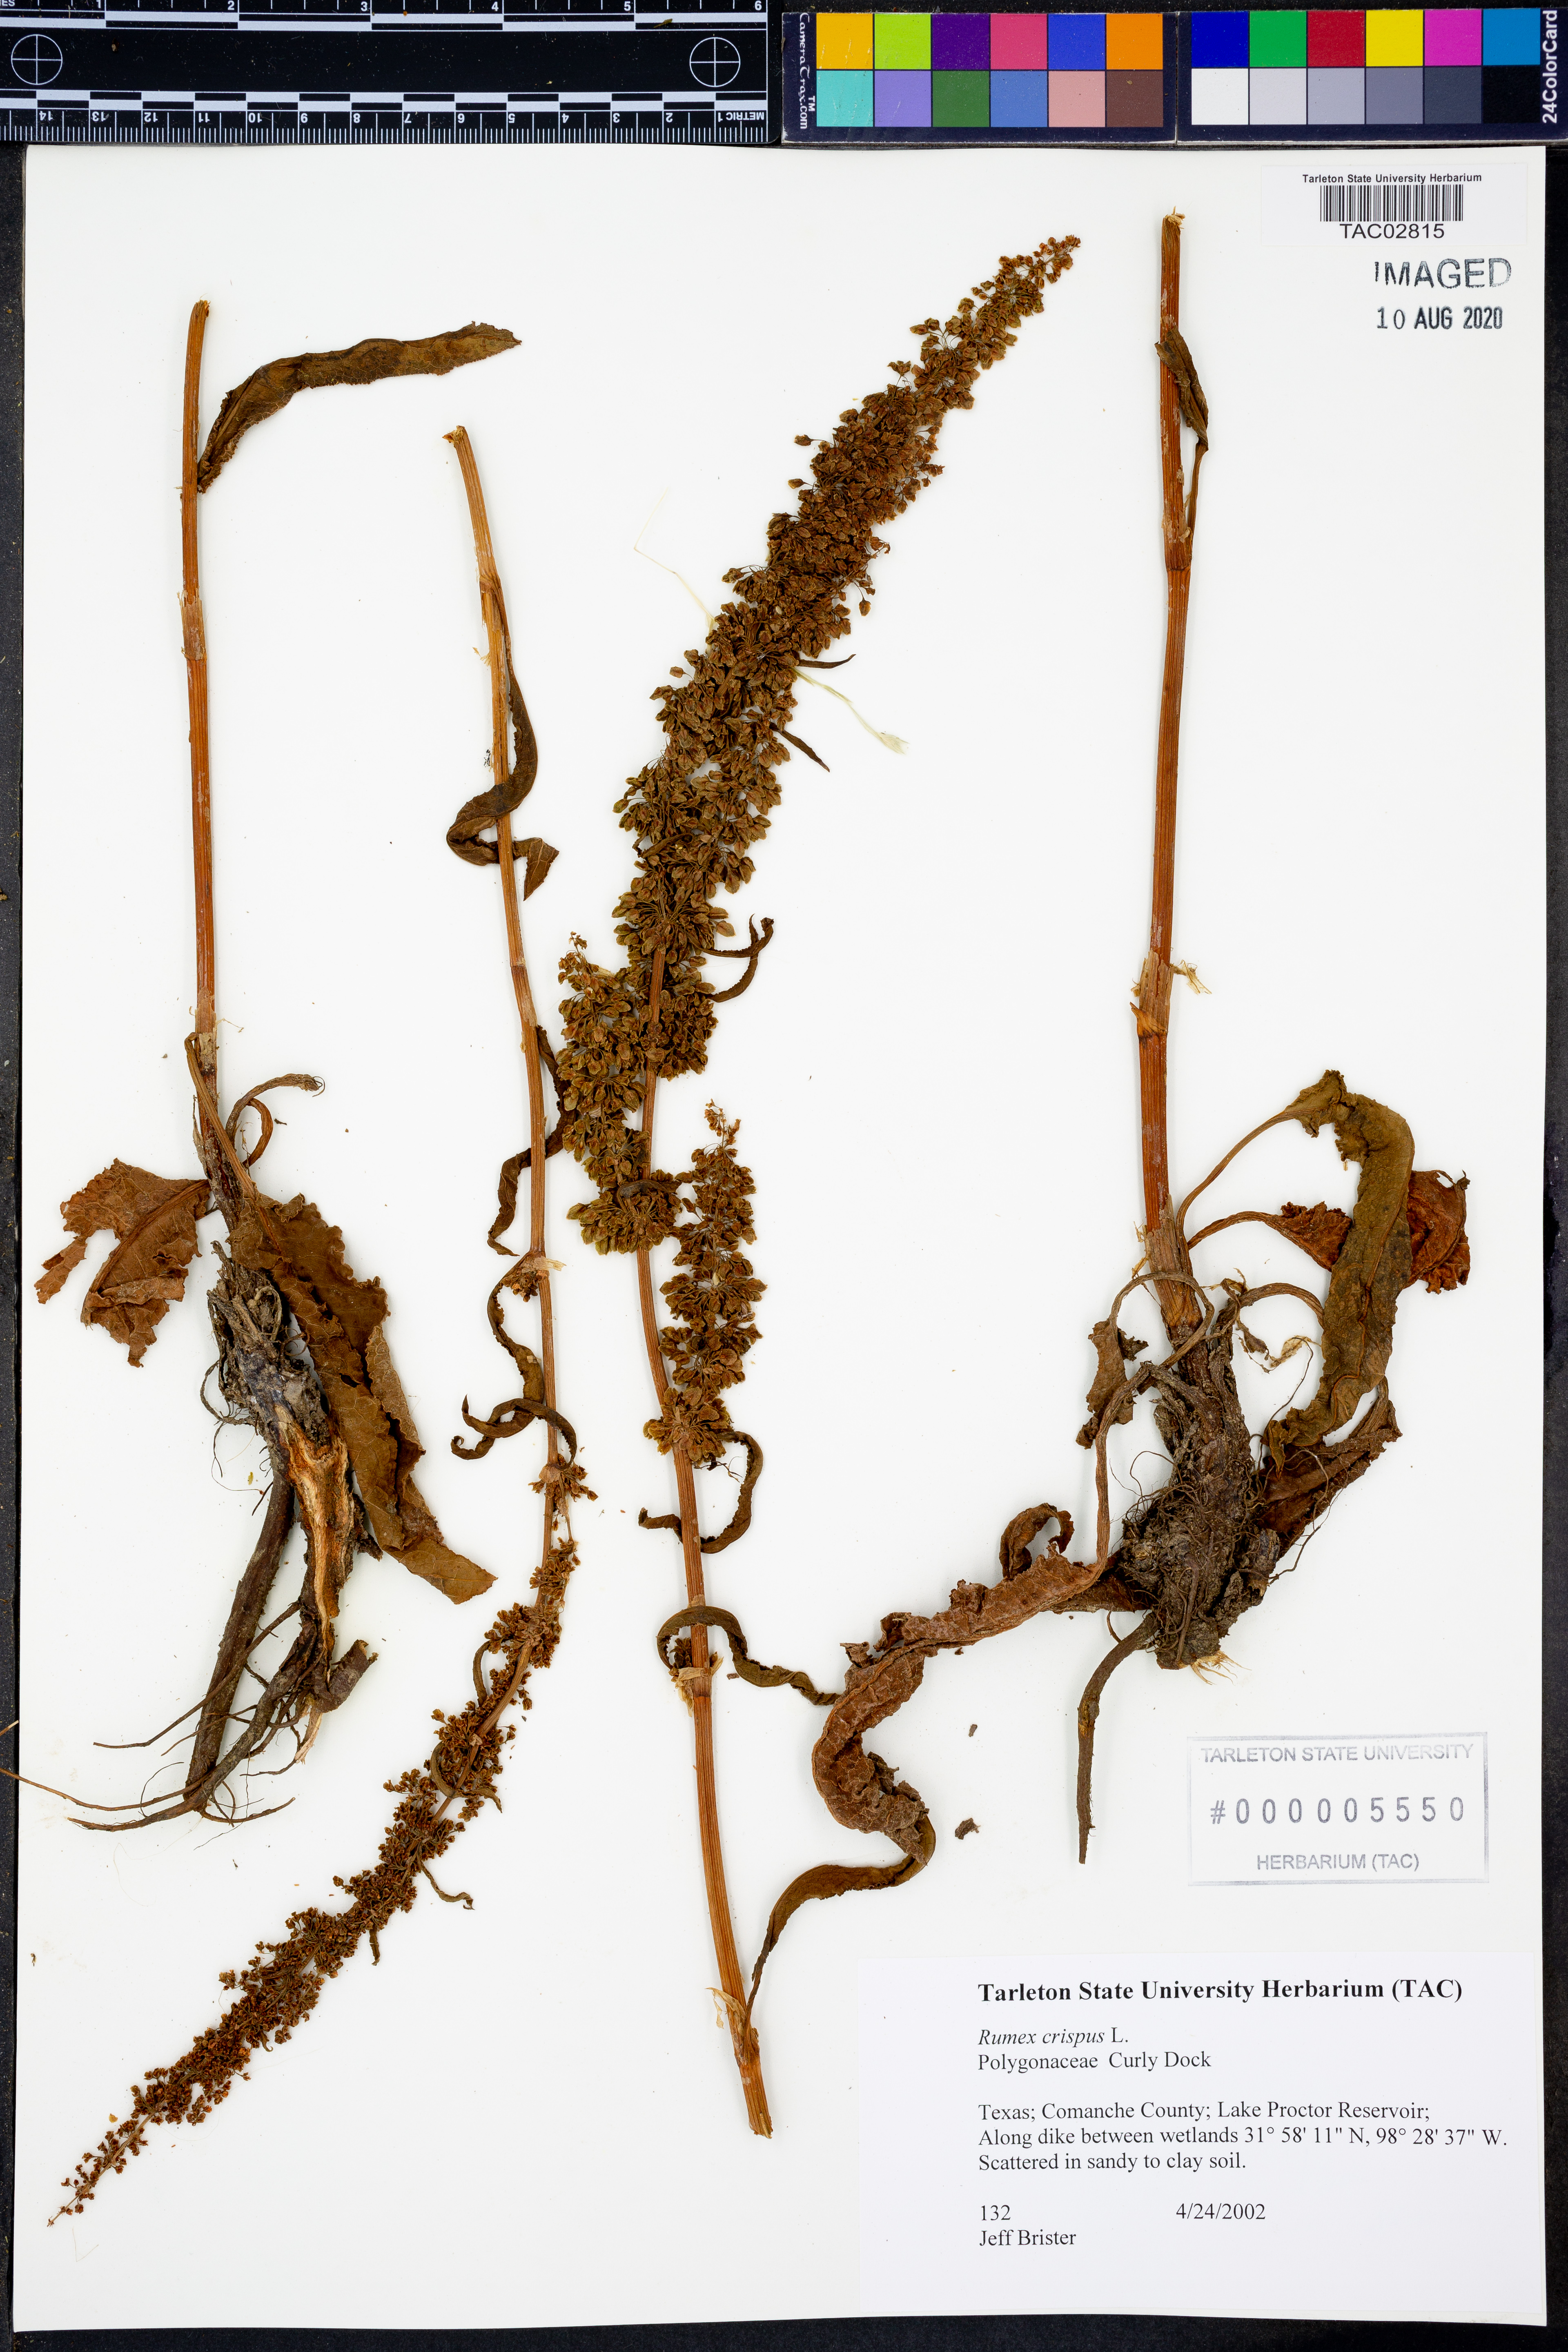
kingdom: Plantae
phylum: Tracheophyta
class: Magnoliopsida
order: Caryophyllales
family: Polygonaceae
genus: Rumex
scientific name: Rumex crispus
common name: Curled dock
